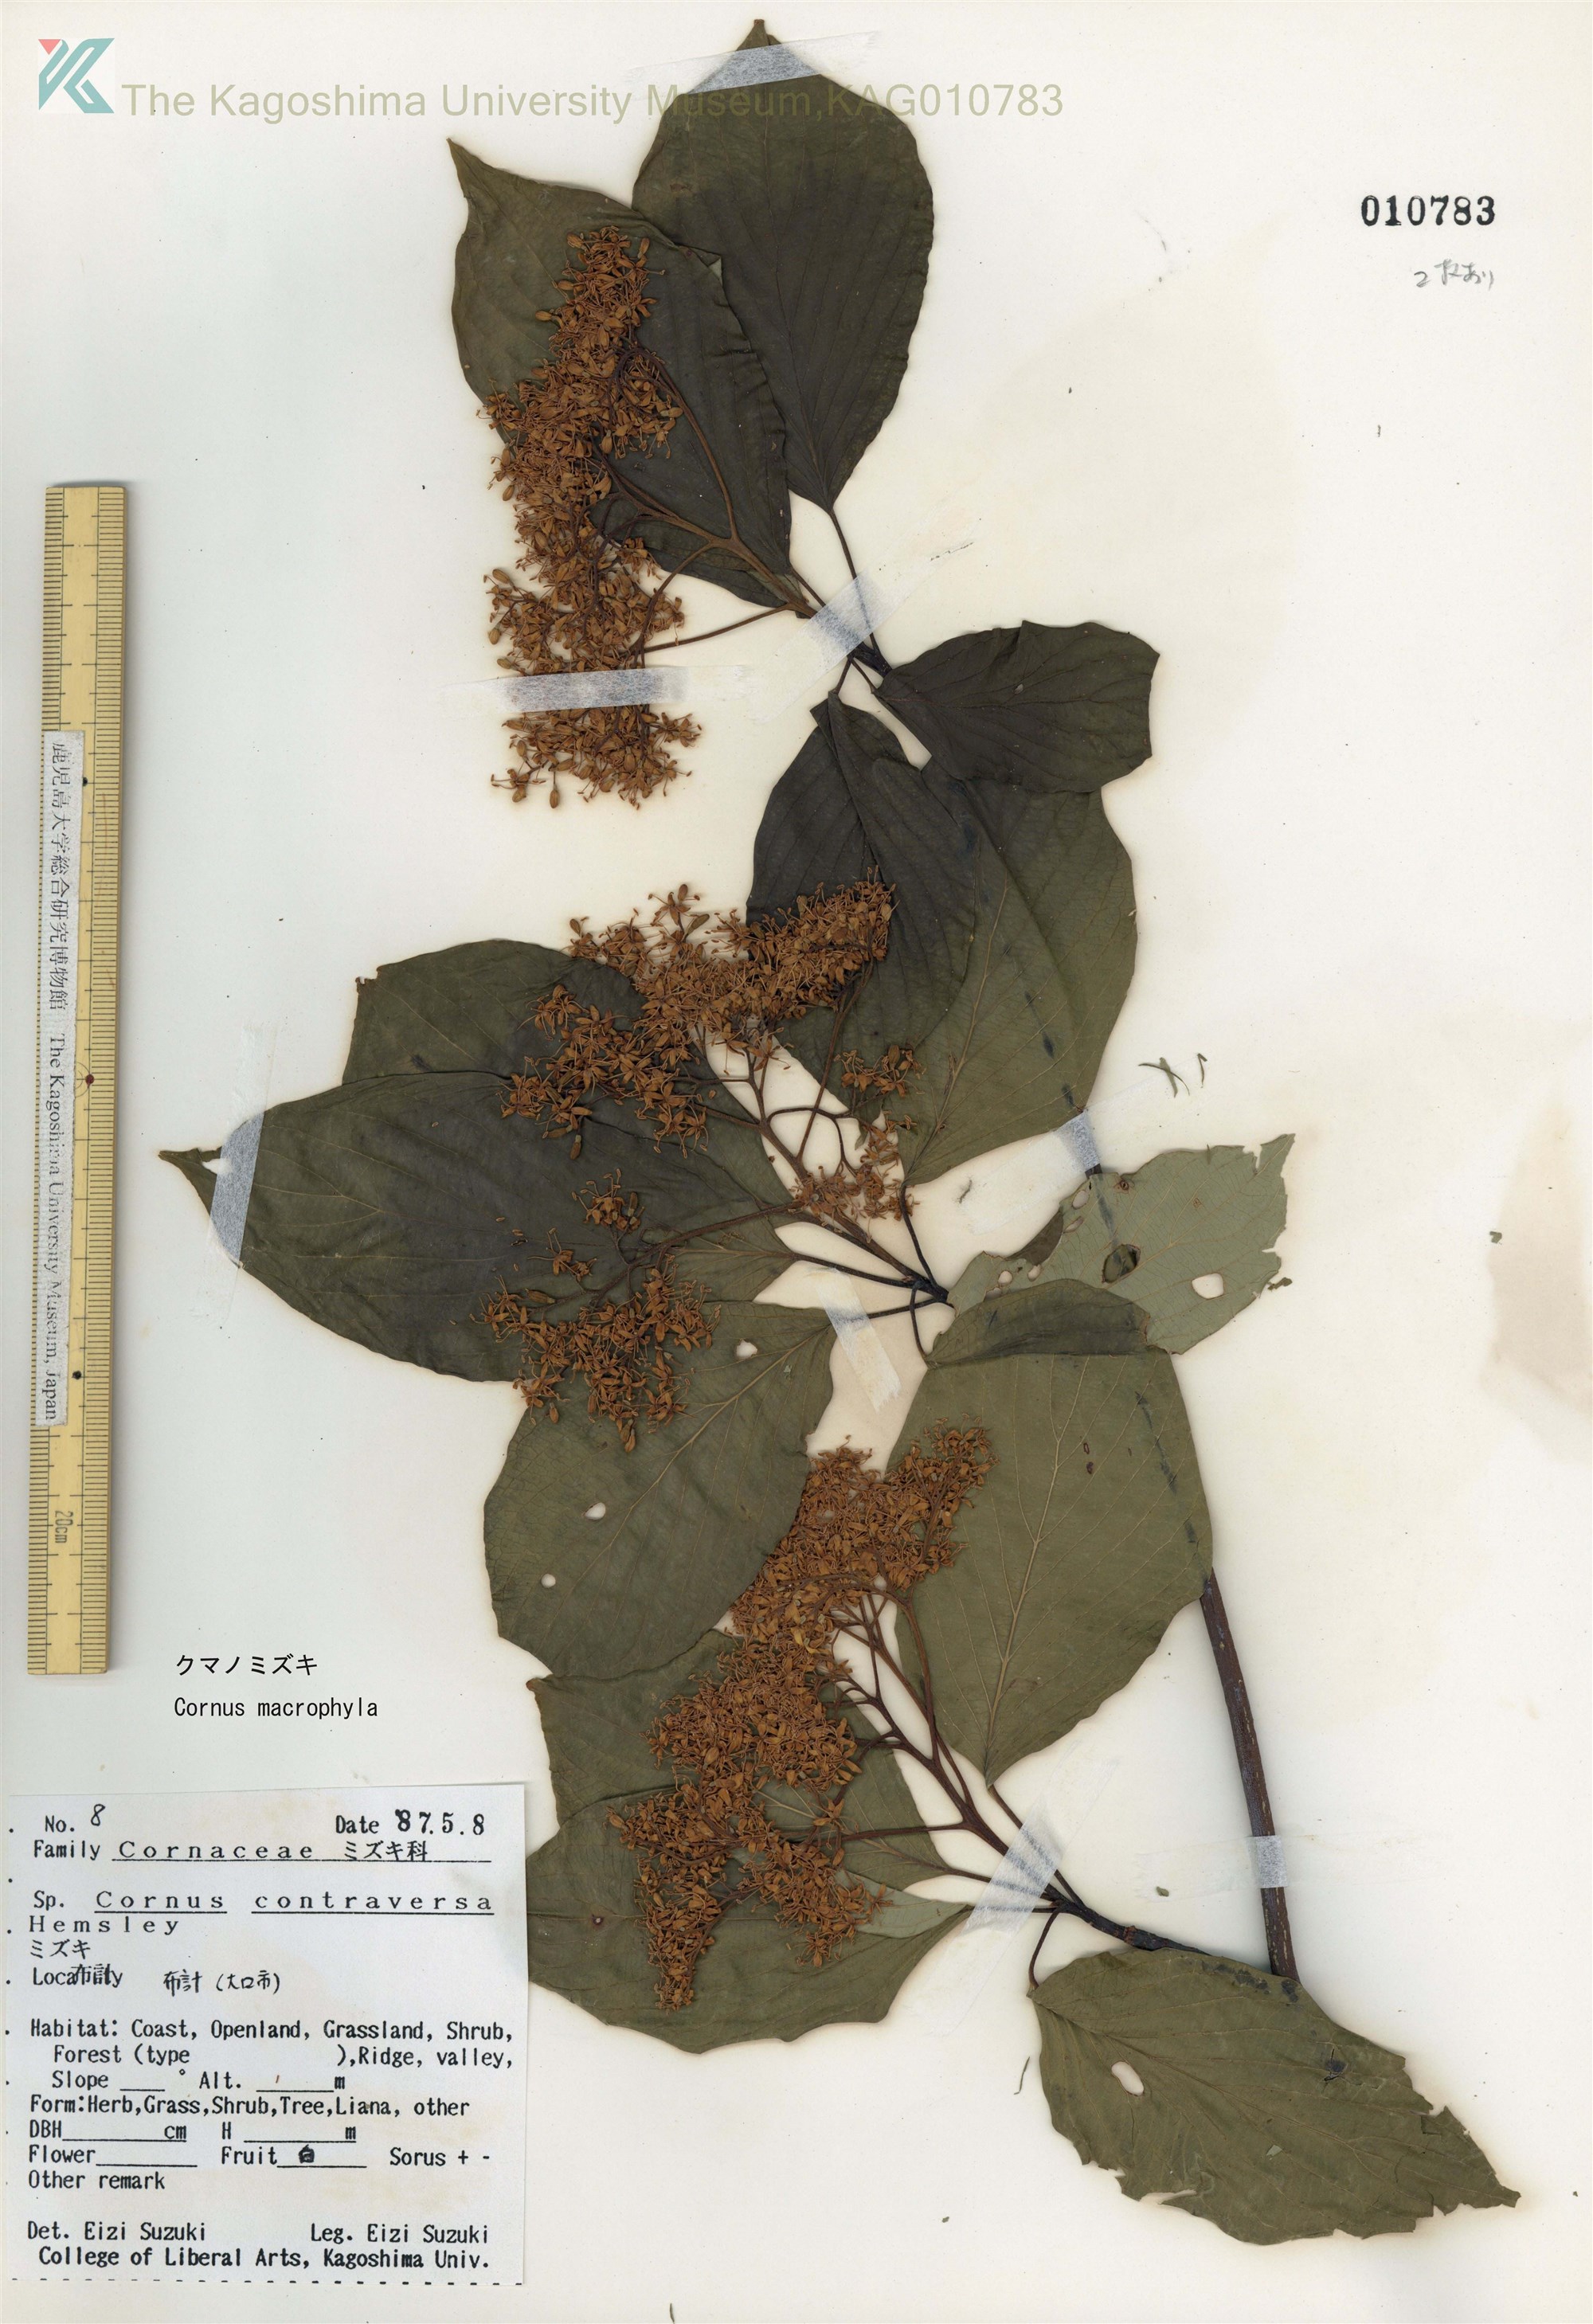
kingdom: Plantae
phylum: Tracheophyta
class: Magnoliopsida
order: Cornales
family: Cornaceae
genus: Cornus
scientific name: Cornus macrophylla
